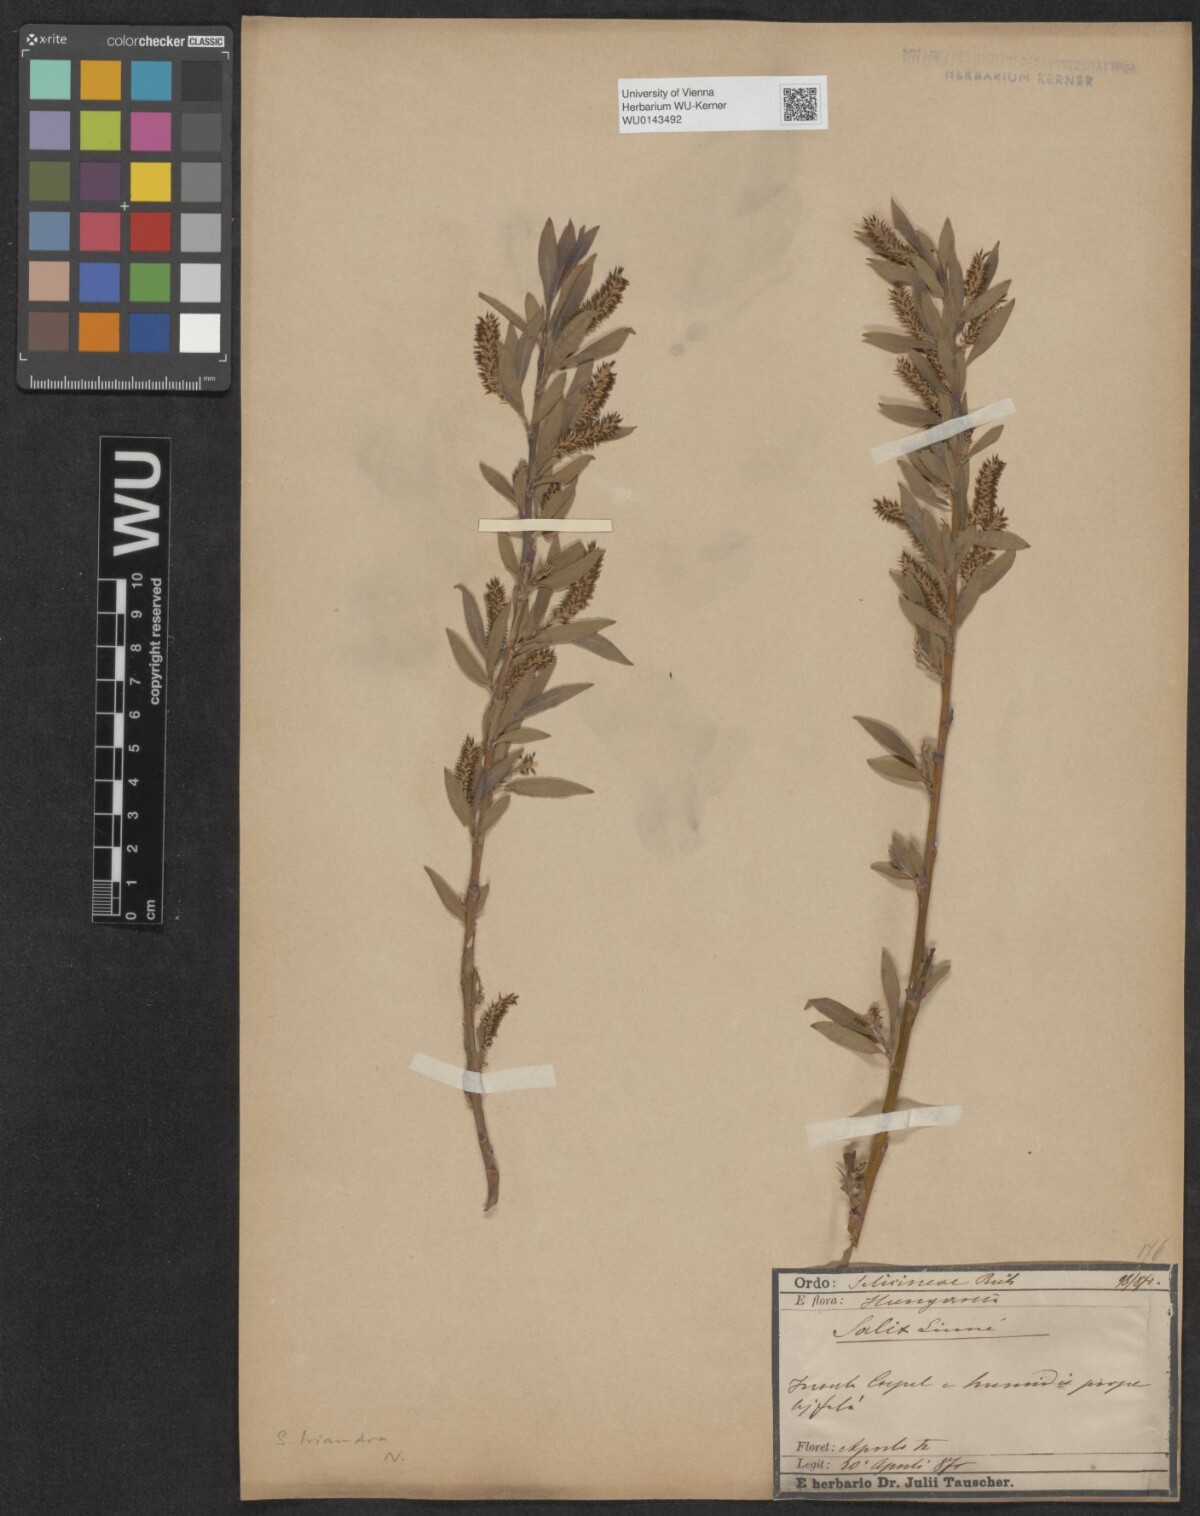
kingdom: Plantae
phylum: Tracheophyta
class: Magnoliopsida
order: Malpighiales
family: Salicaceae
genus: Salix
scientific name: Salix triandra
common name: Almond willow
